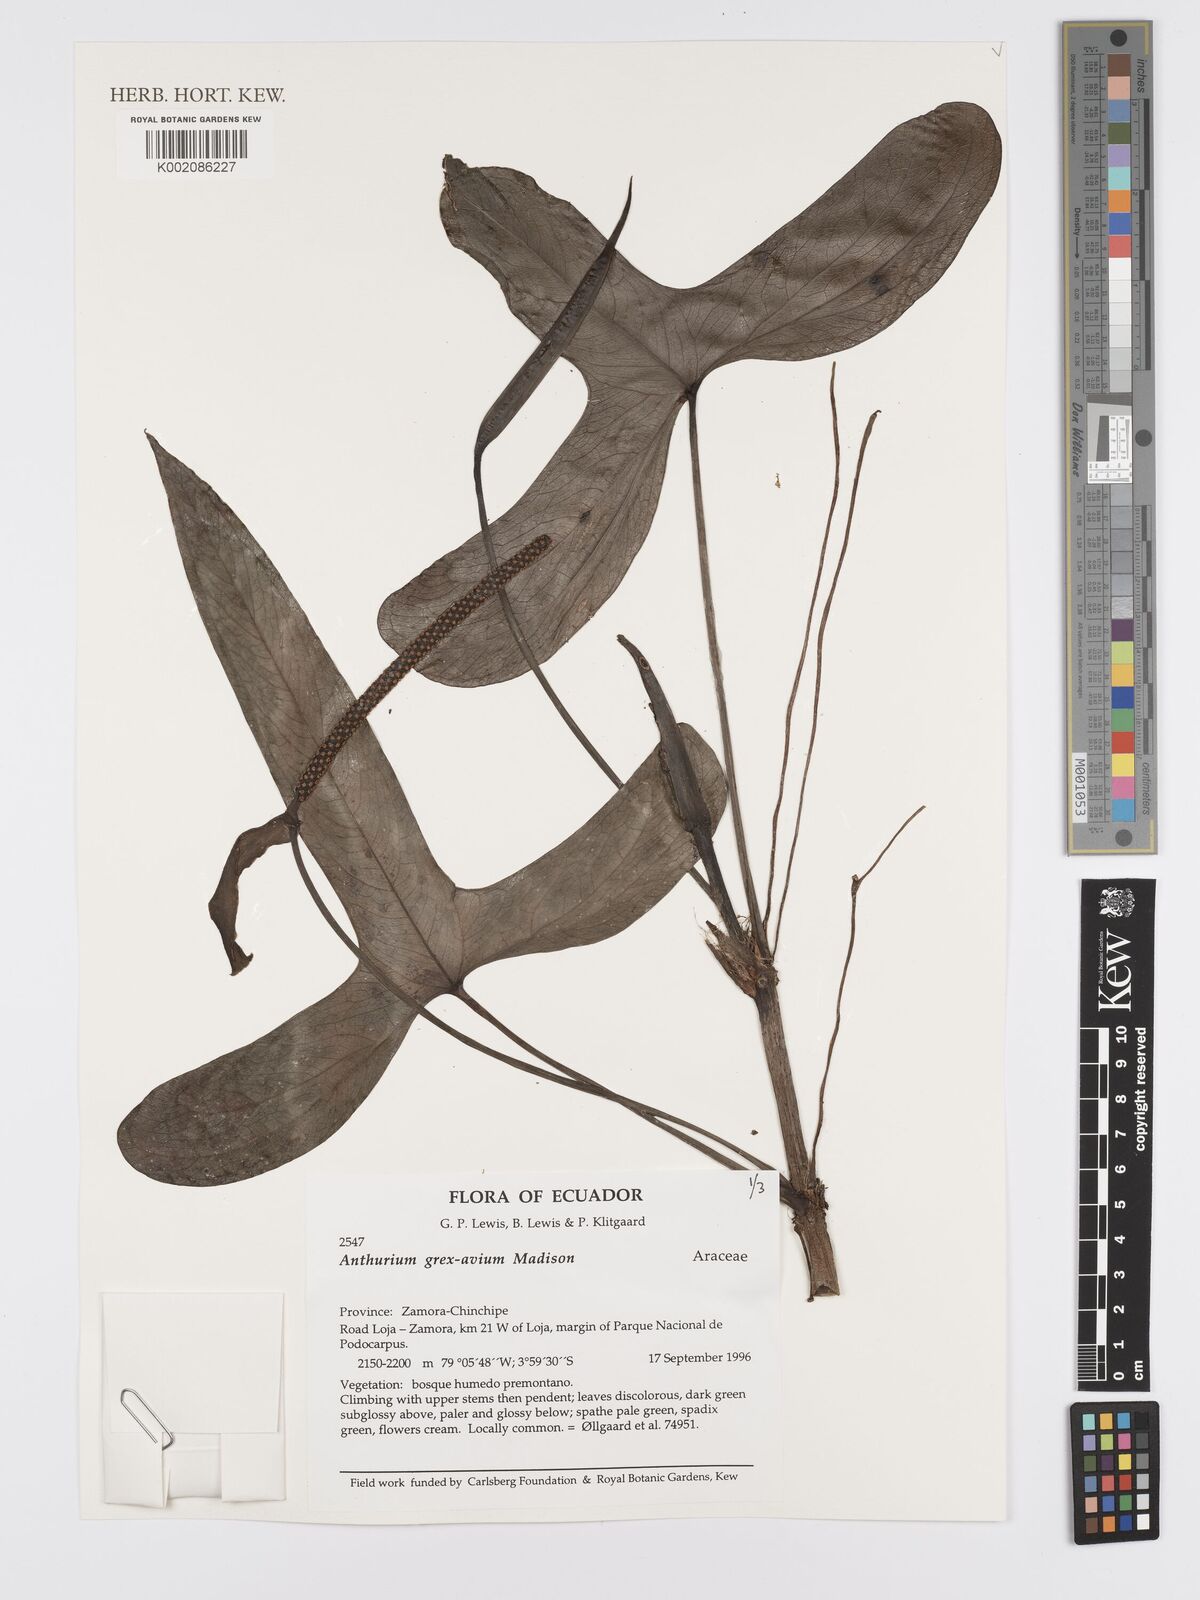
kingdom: Plantae
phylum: Tracheophyta
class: Liliopsida
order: Alismatales
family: Araceae
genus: Anthurium
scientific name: Anthurium grex-avium
